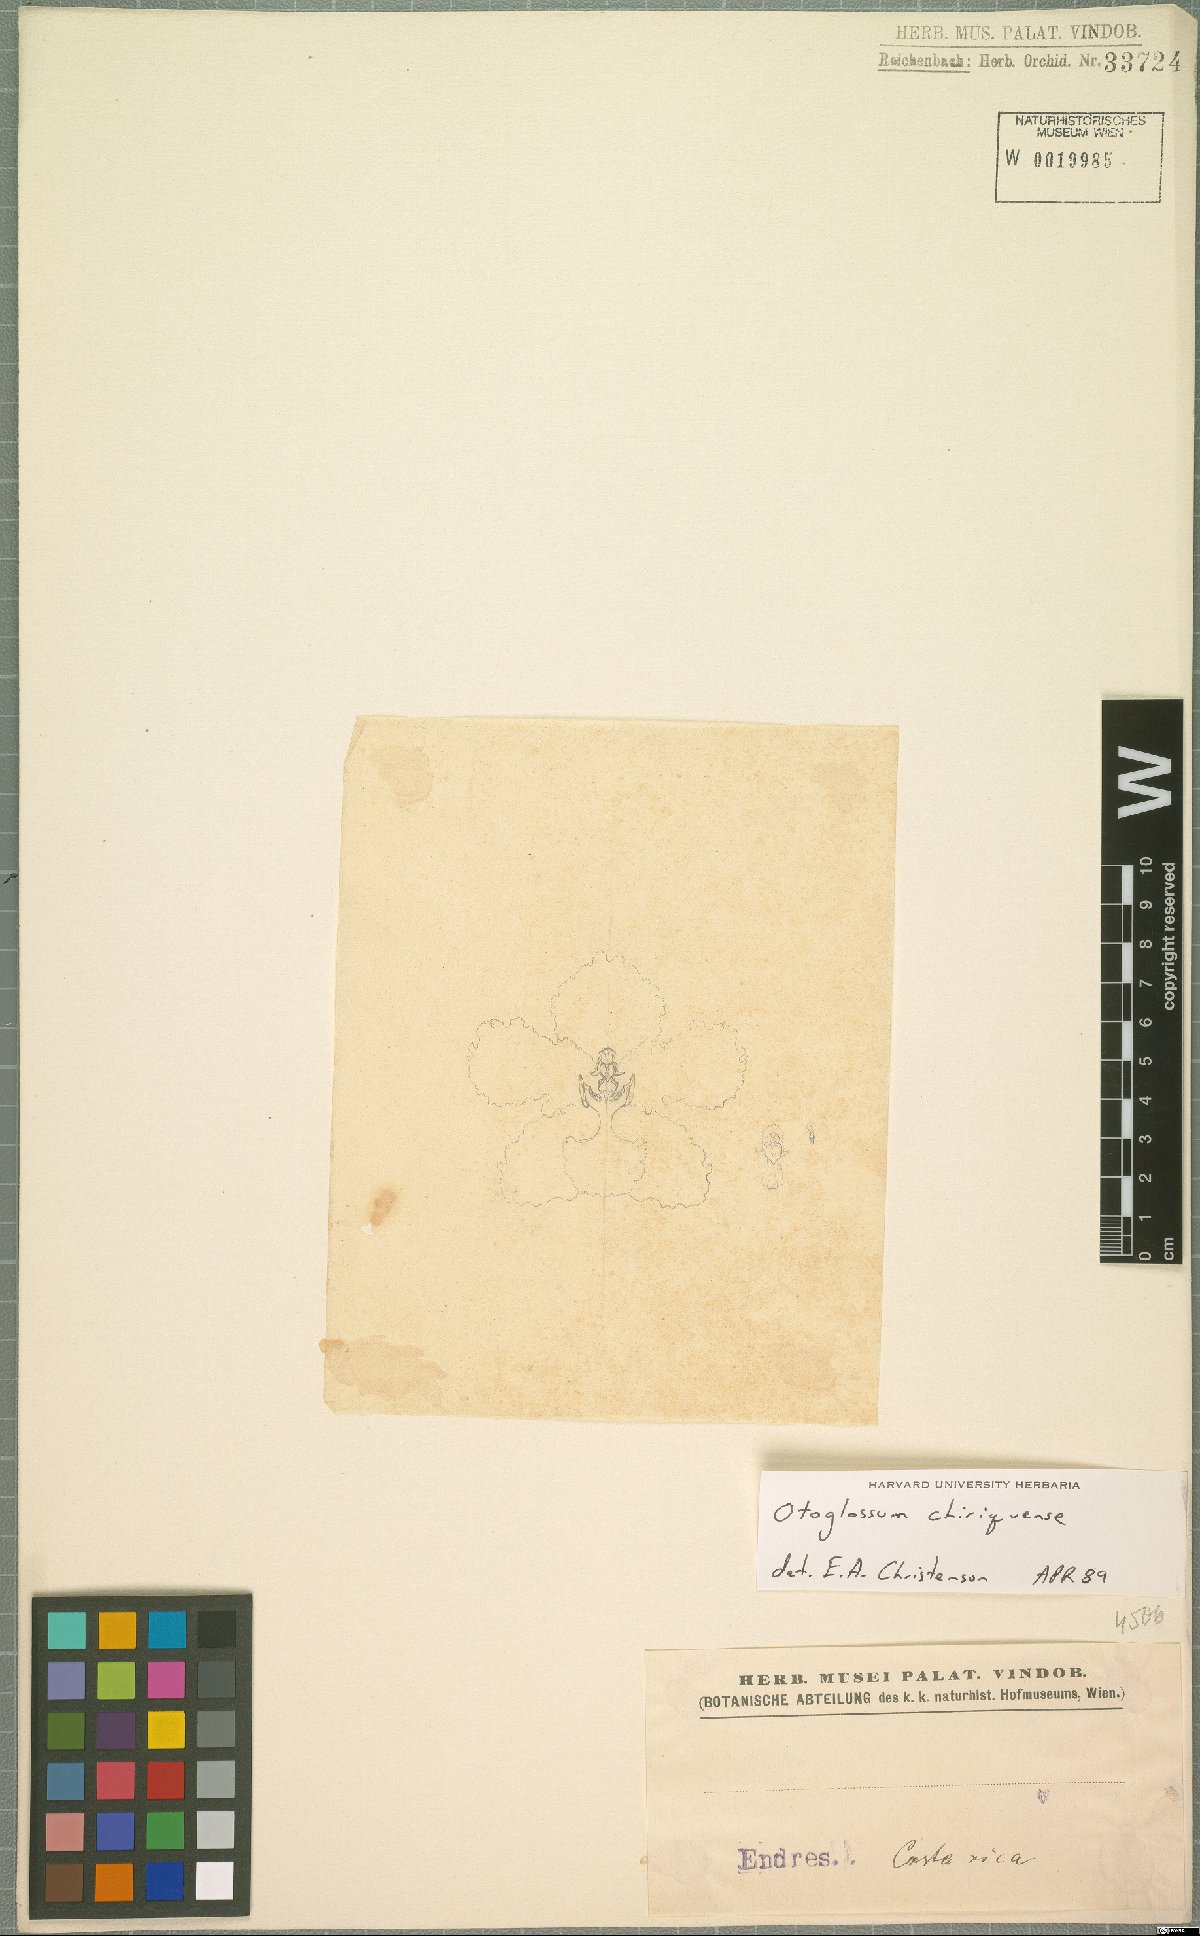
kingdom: Plantae
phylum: Tracheophyta
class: Liliopsida
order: Asparagales
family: Orchidaceae
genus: Otoglossum
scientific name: Otoglossum chiriquense
